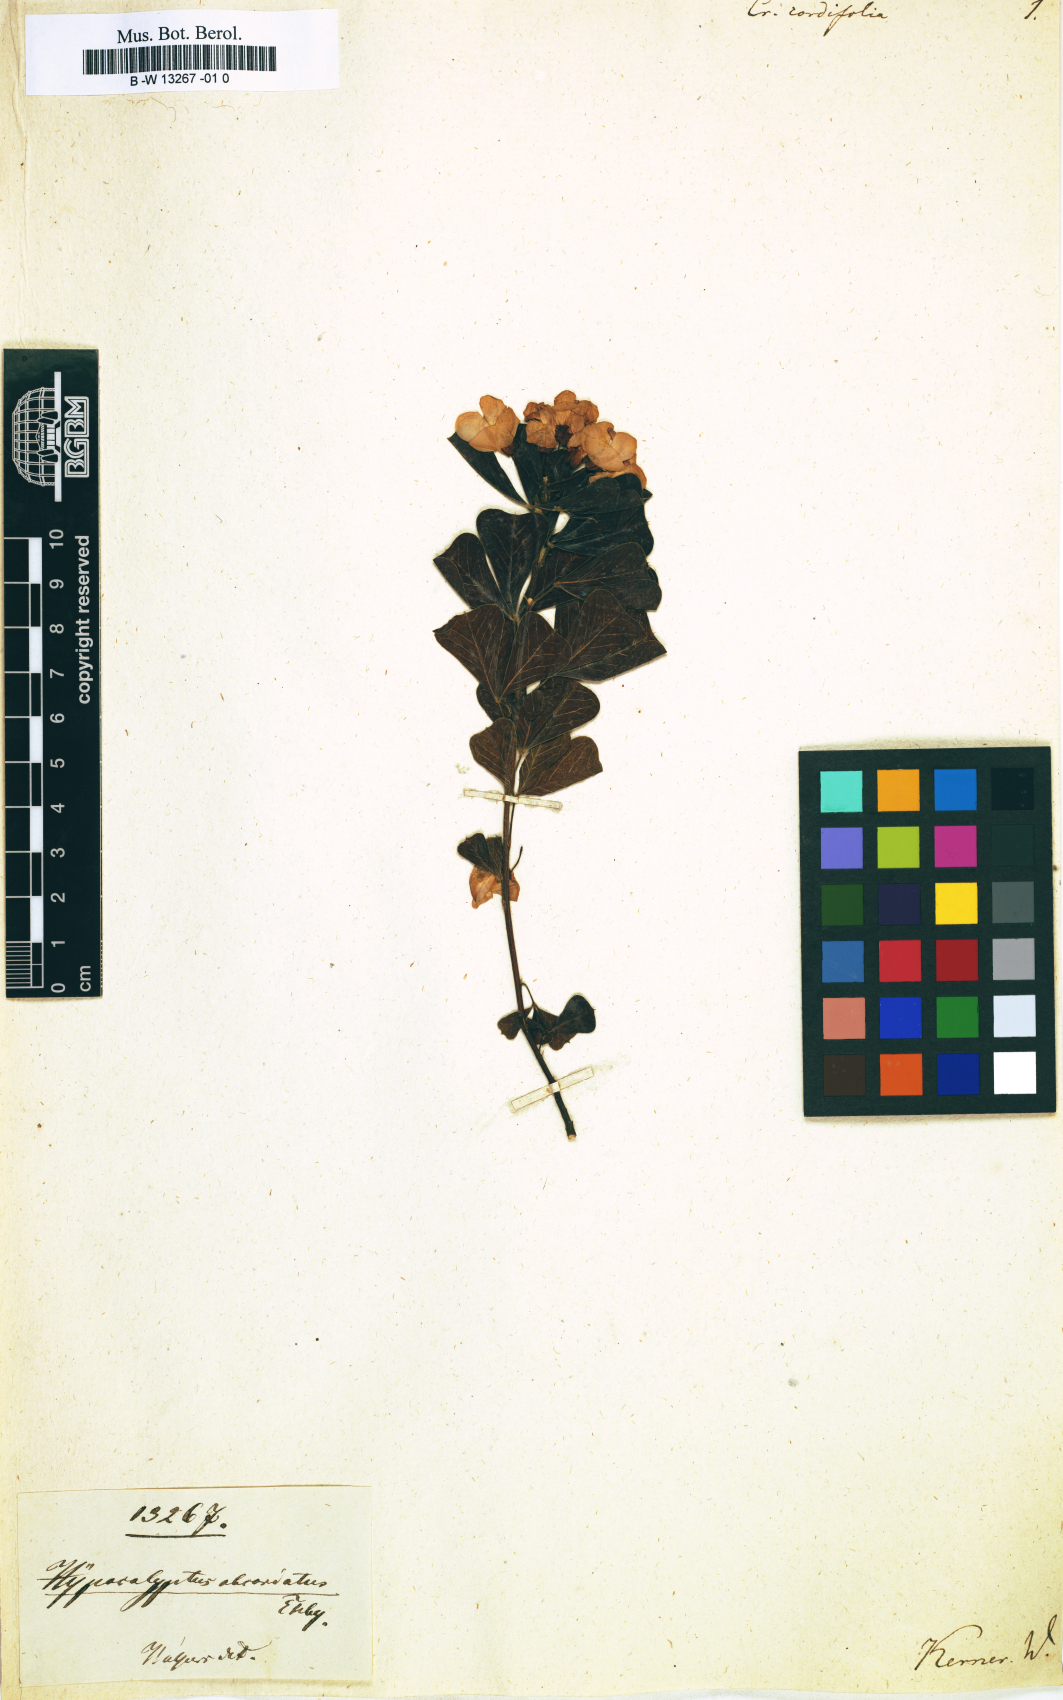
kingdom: Plantae
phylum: Tracheophyta
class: Magnoliopsida
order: Fabales
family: Fabaceae
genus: Hypocalyptus
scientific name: Hypocalyptus sophoroides
